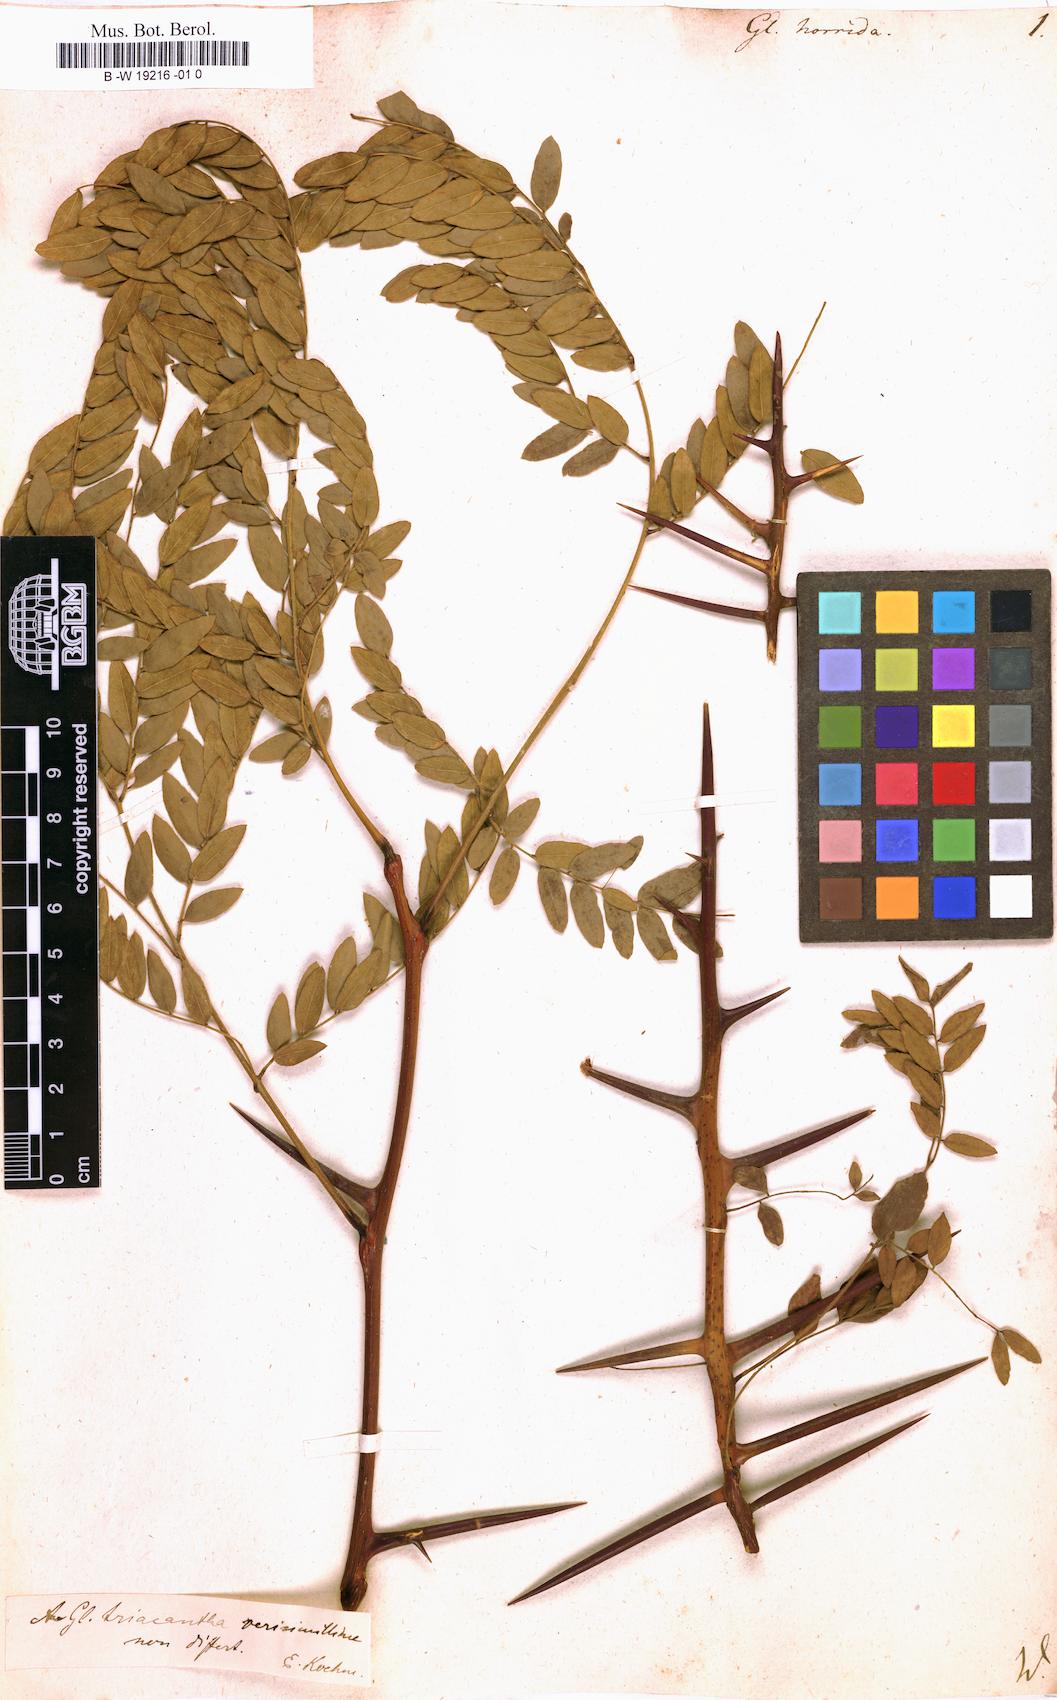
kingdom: Plantae
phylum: Tracheophyta
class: Magnoliopsida
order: Fabales
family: Fabaceae
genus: Gleditsia
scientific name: Gleditsia
